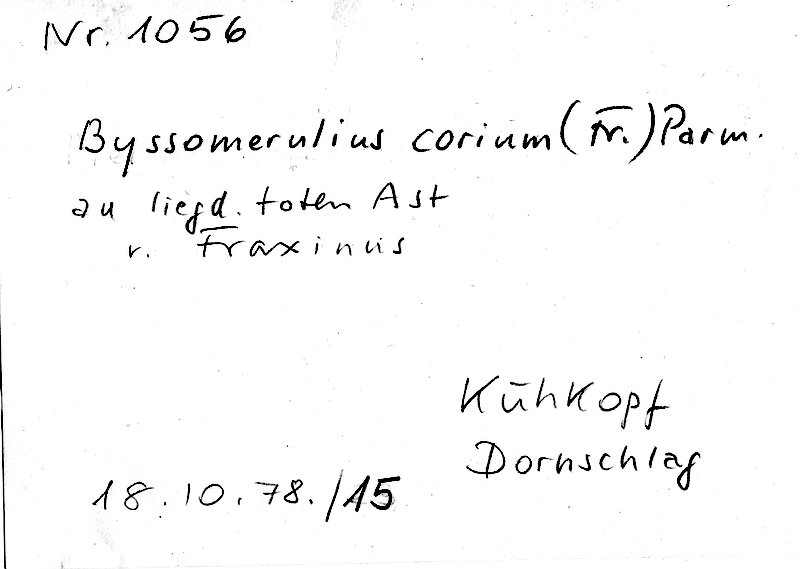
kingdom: Fungi
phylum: Basidiomycota
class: Agaricomycetes
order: Polyporales
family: Irpicaceae
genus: Byssomerulius
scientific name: Byssomerulius corium
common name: Netted crust
